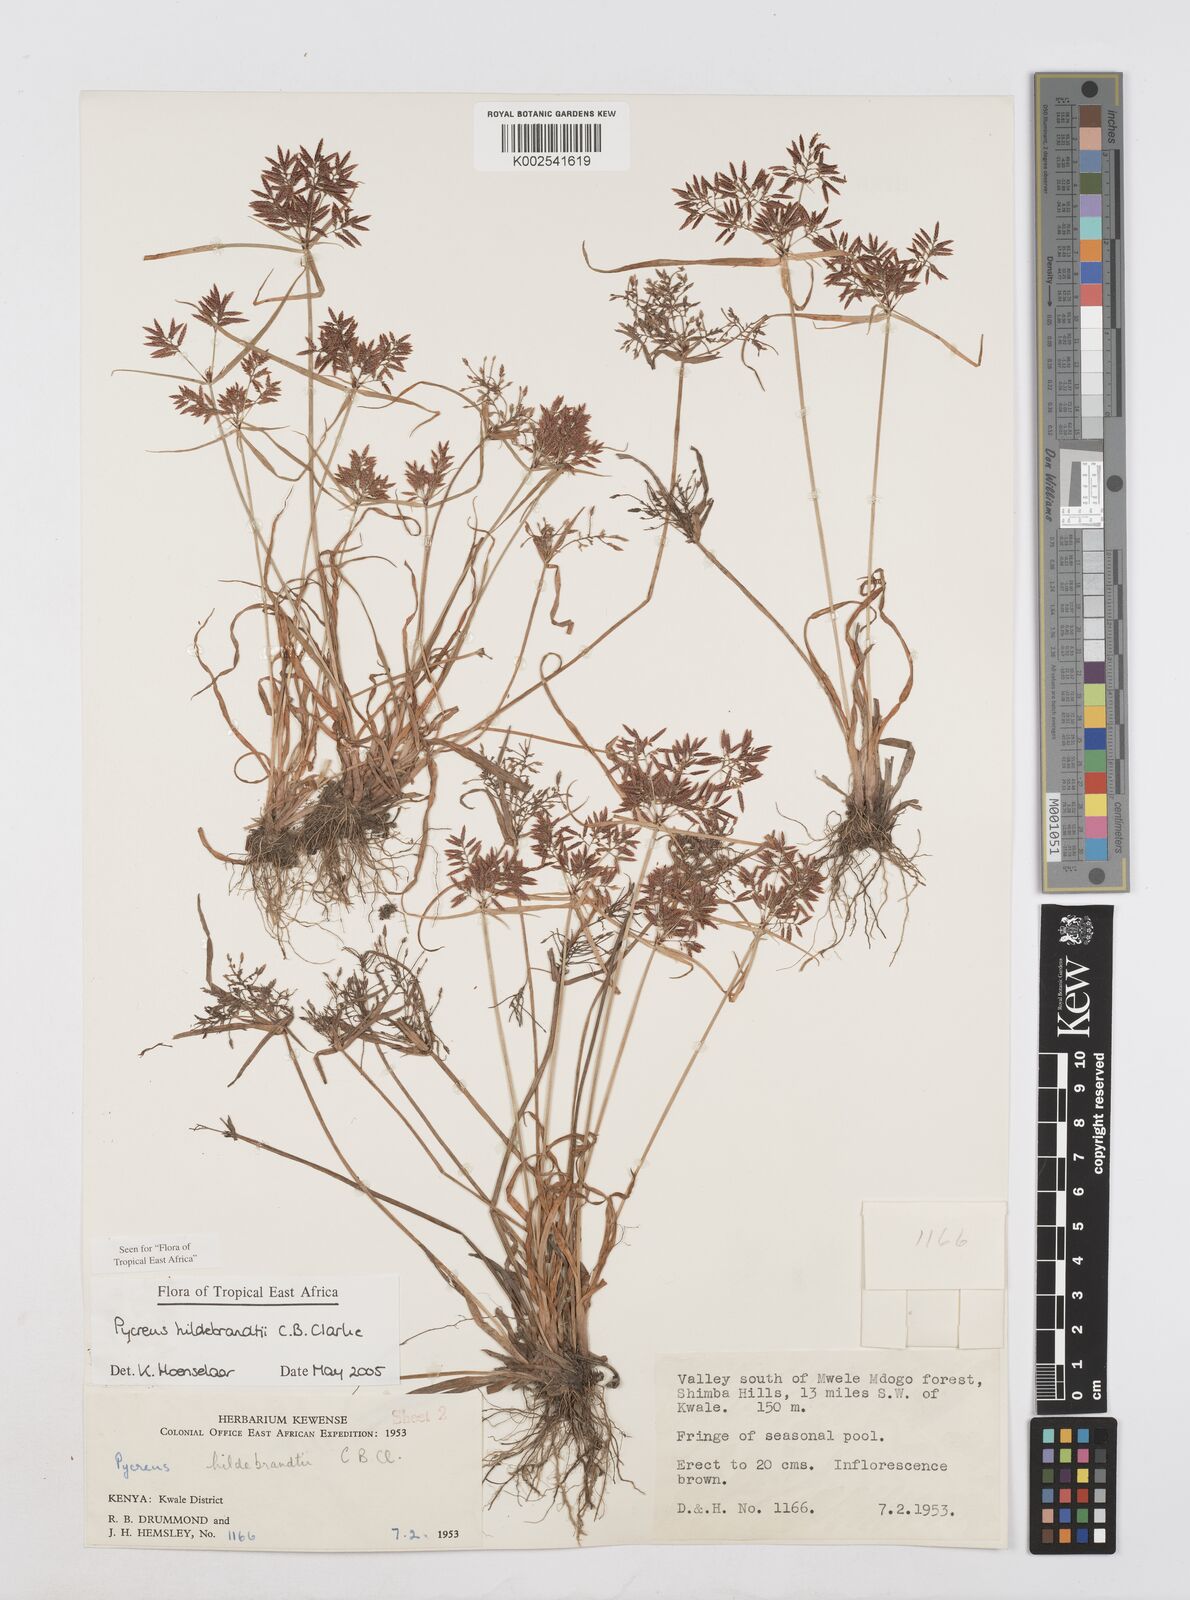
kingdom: Plantae
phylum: Tracheophyta
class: Liliopsida
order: Poales
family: Cyperaceae
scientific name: Cyperaceae
